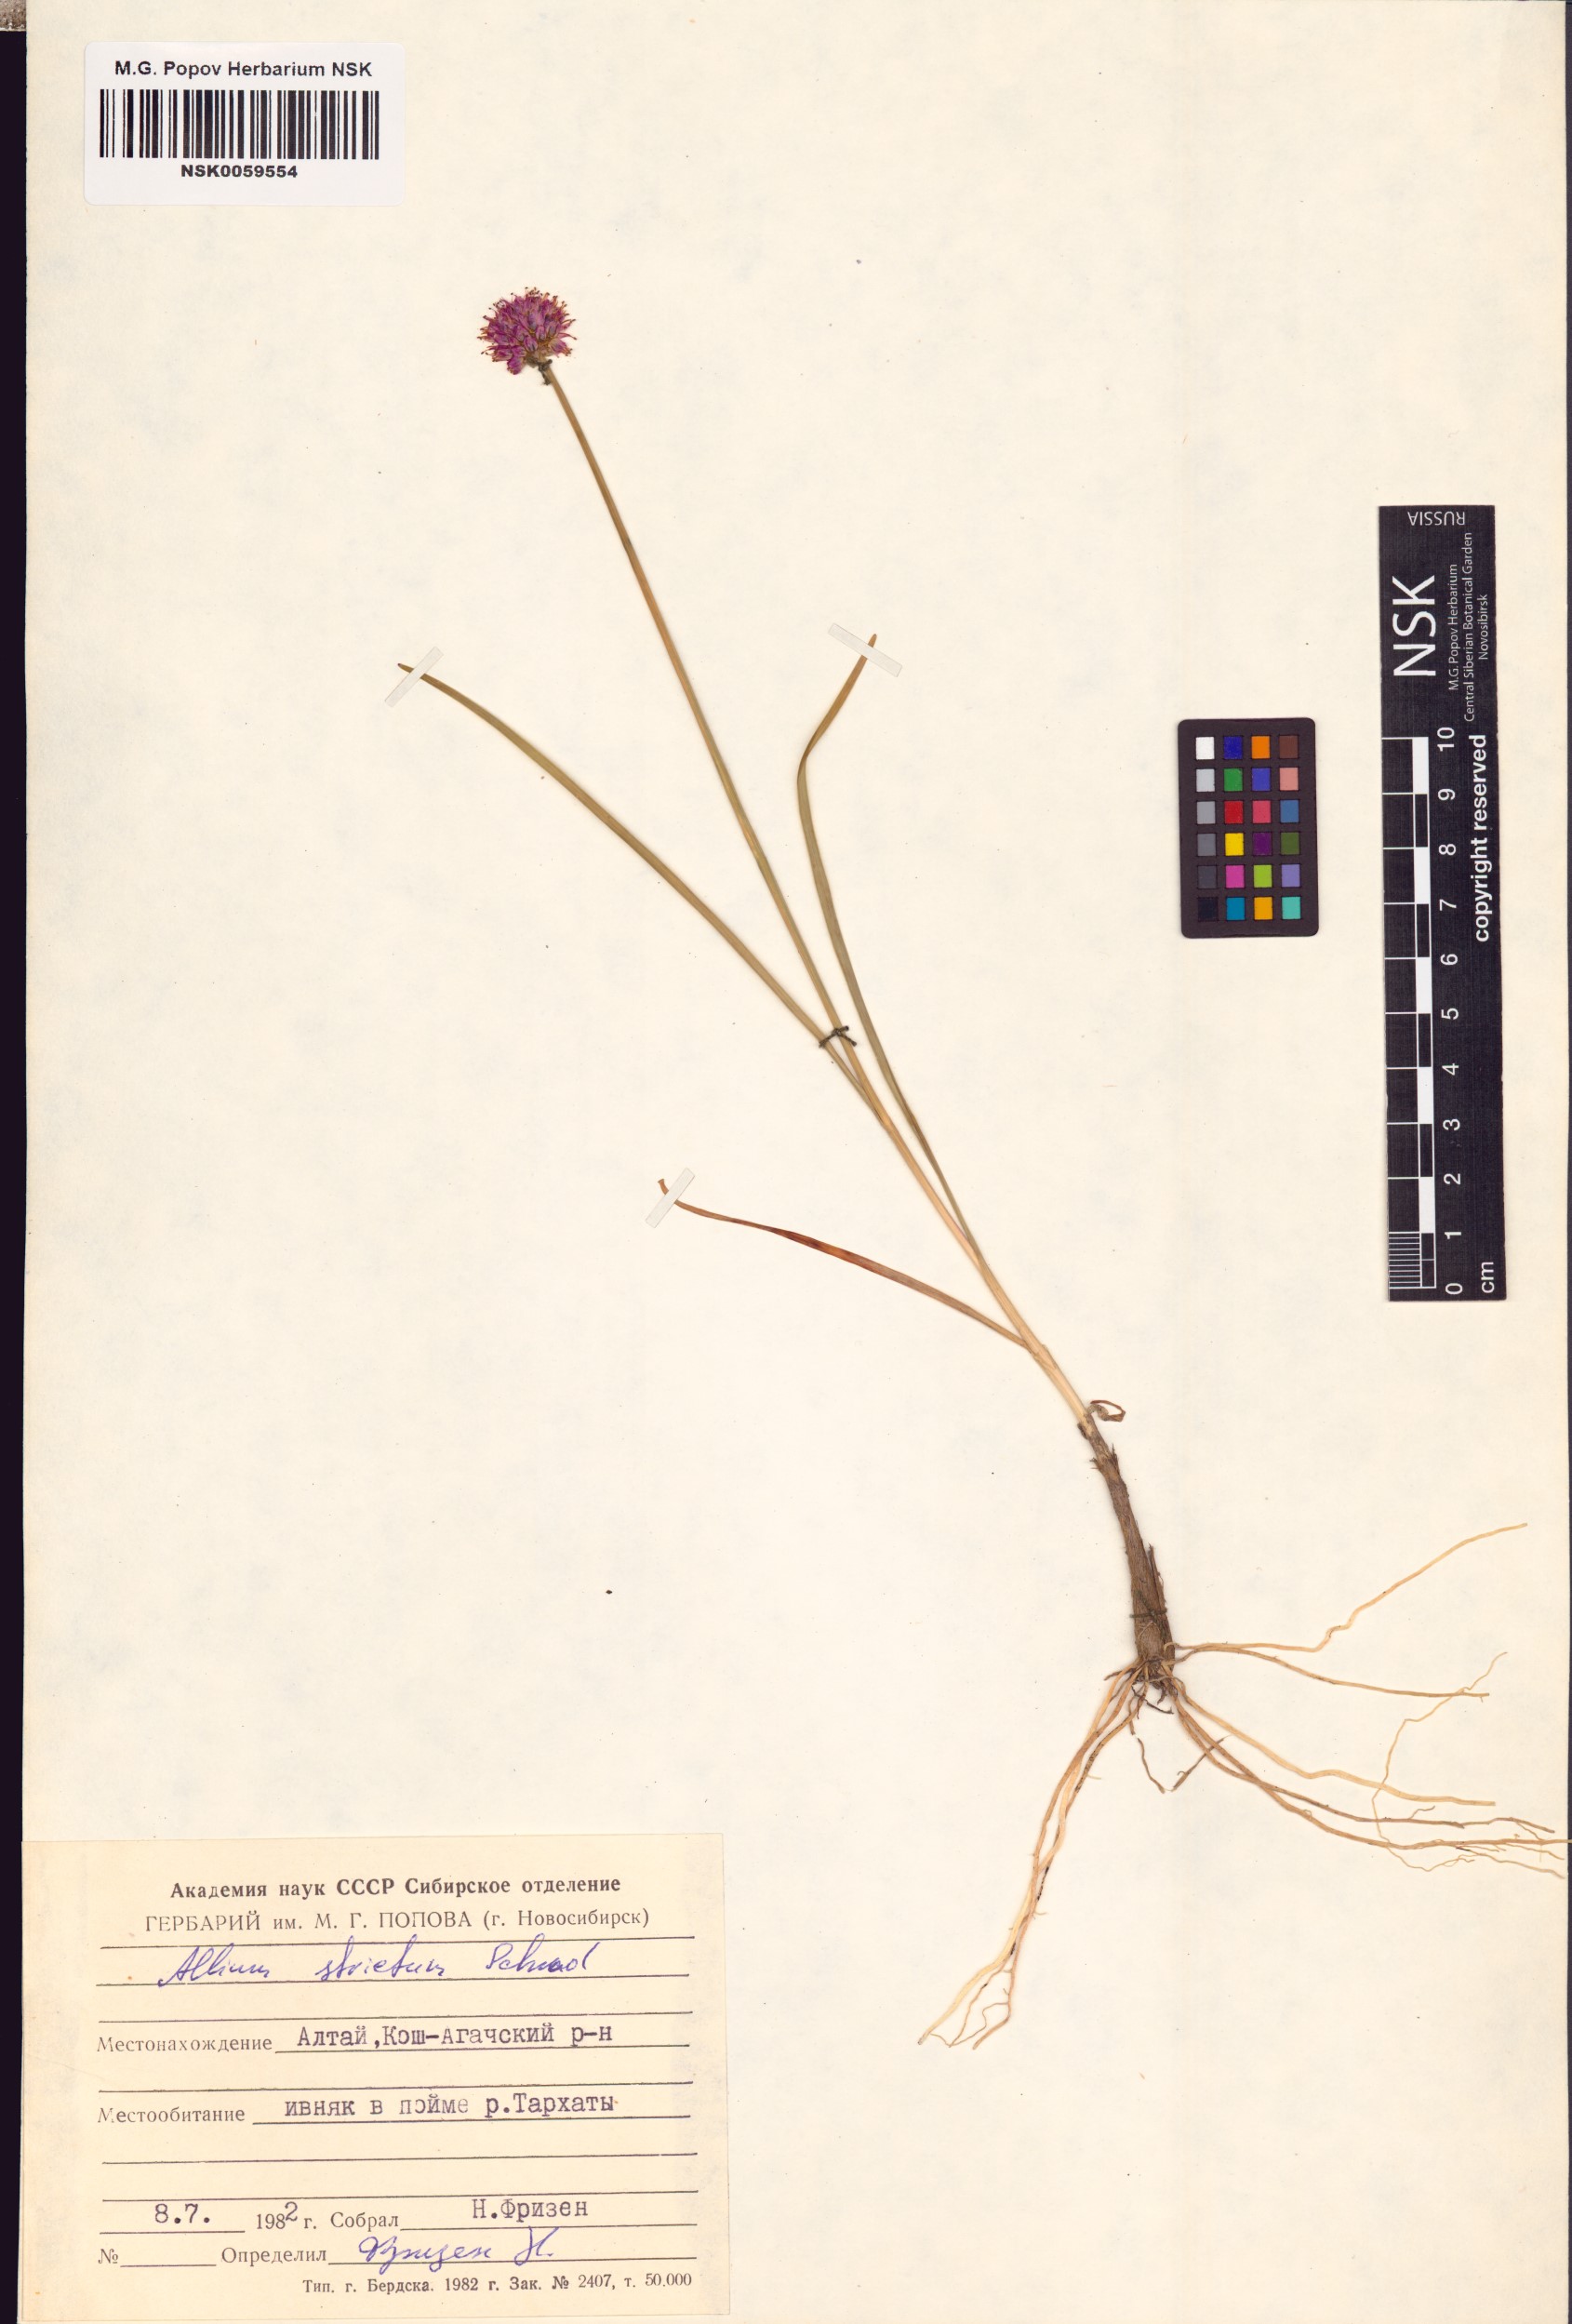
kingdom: Plantae
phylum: Tracheophyta
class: Liliopsida
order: Asparagales
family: Amaryllidaceae
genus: Allium
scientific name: Allium strictum
